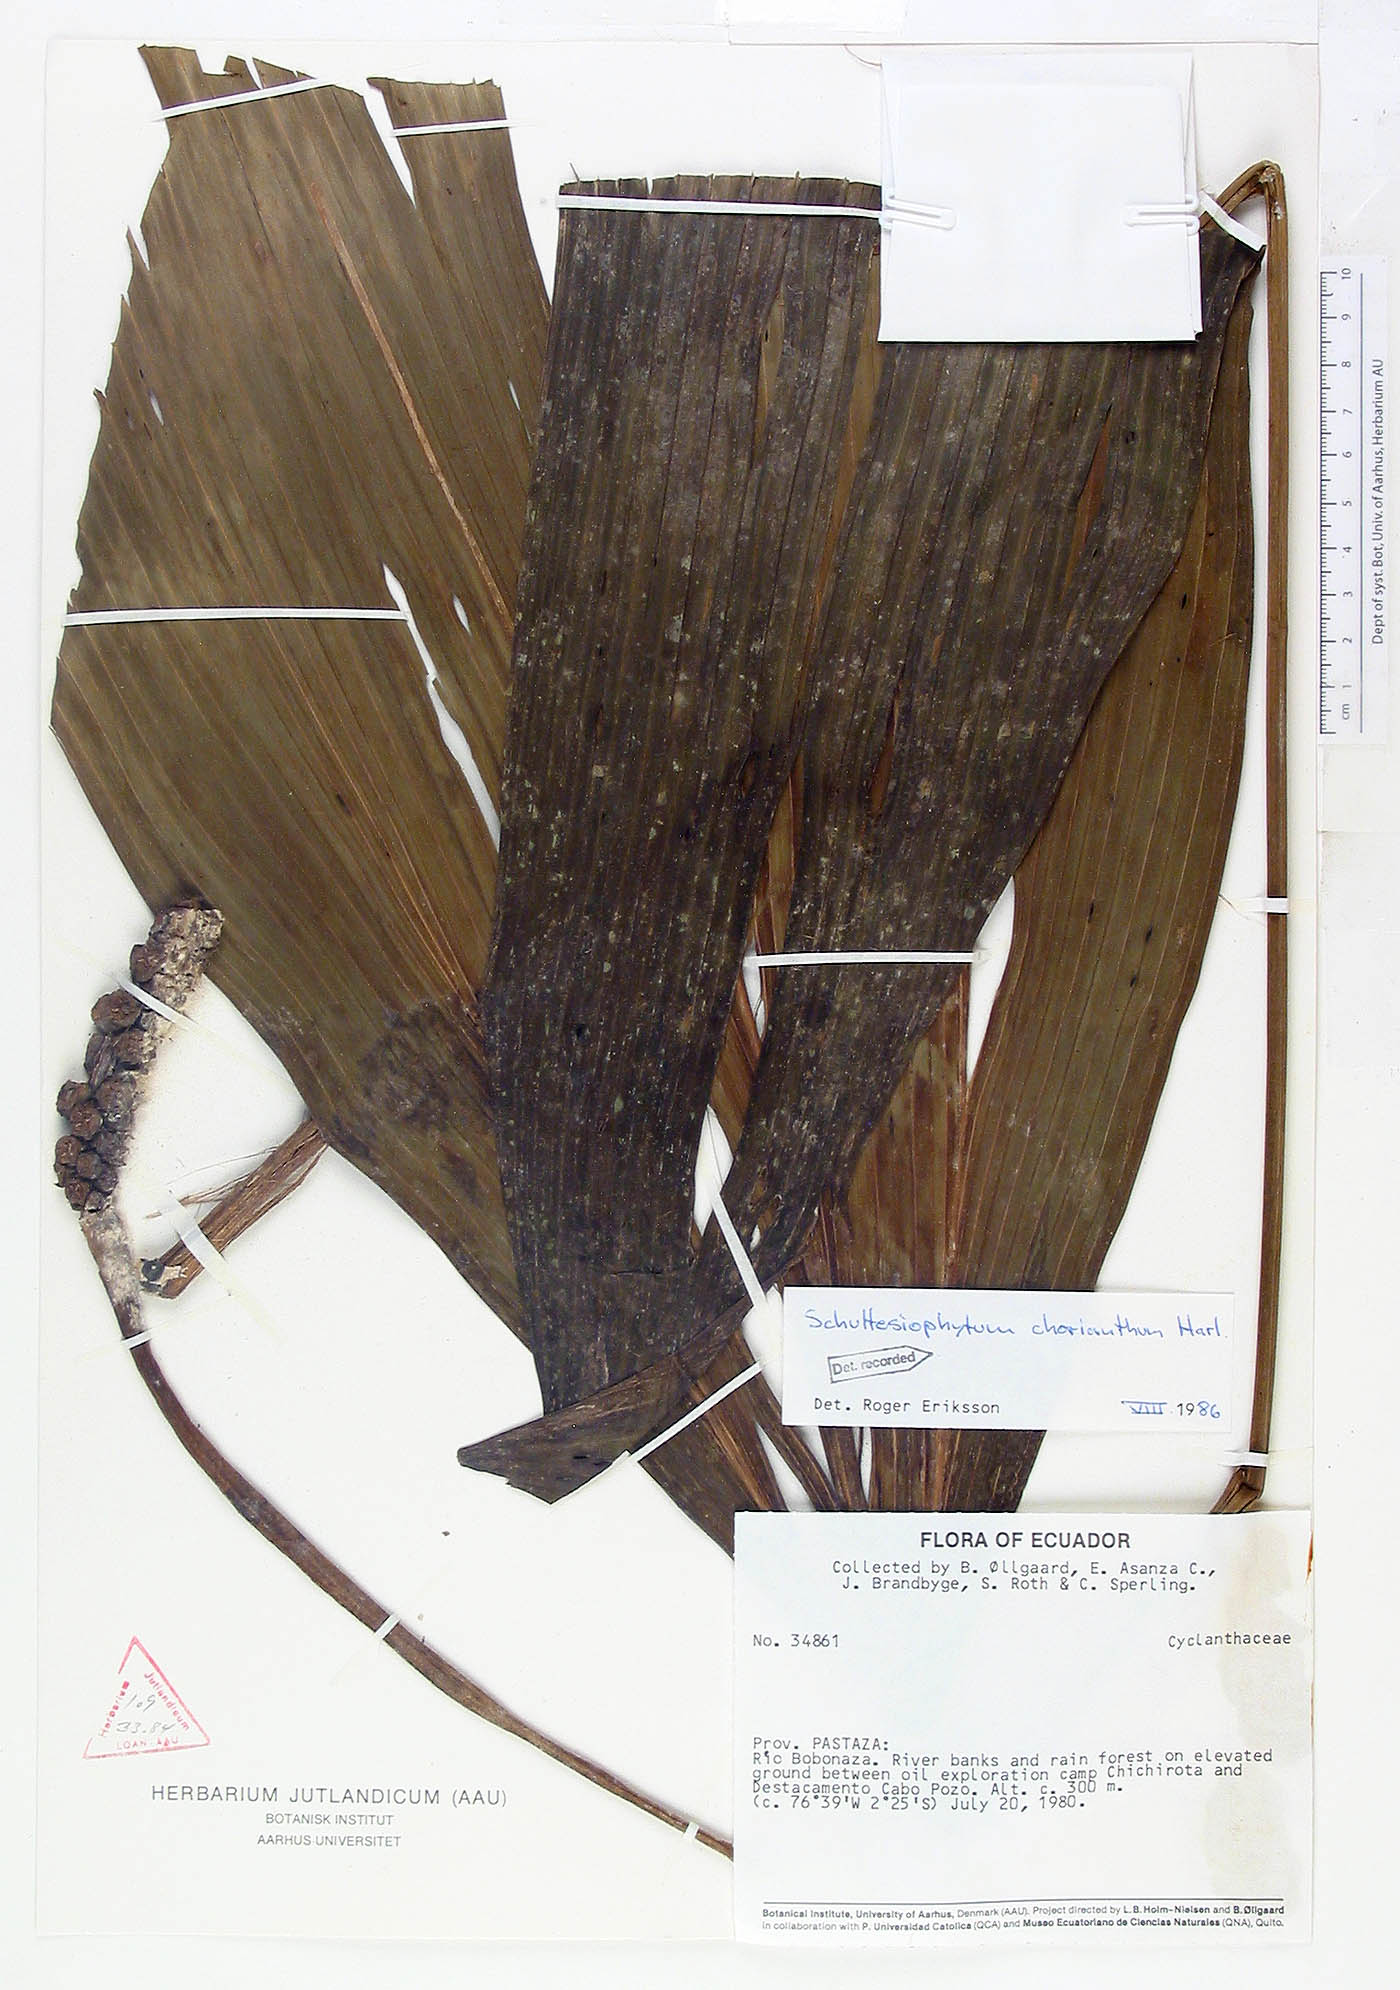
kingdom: Plantae
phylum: Tracheophyta
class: Liliopsida
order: Pandanales
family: Cyclanthaceae
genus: Schultesiophytum
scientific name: Schultesiophytum chorianthum
